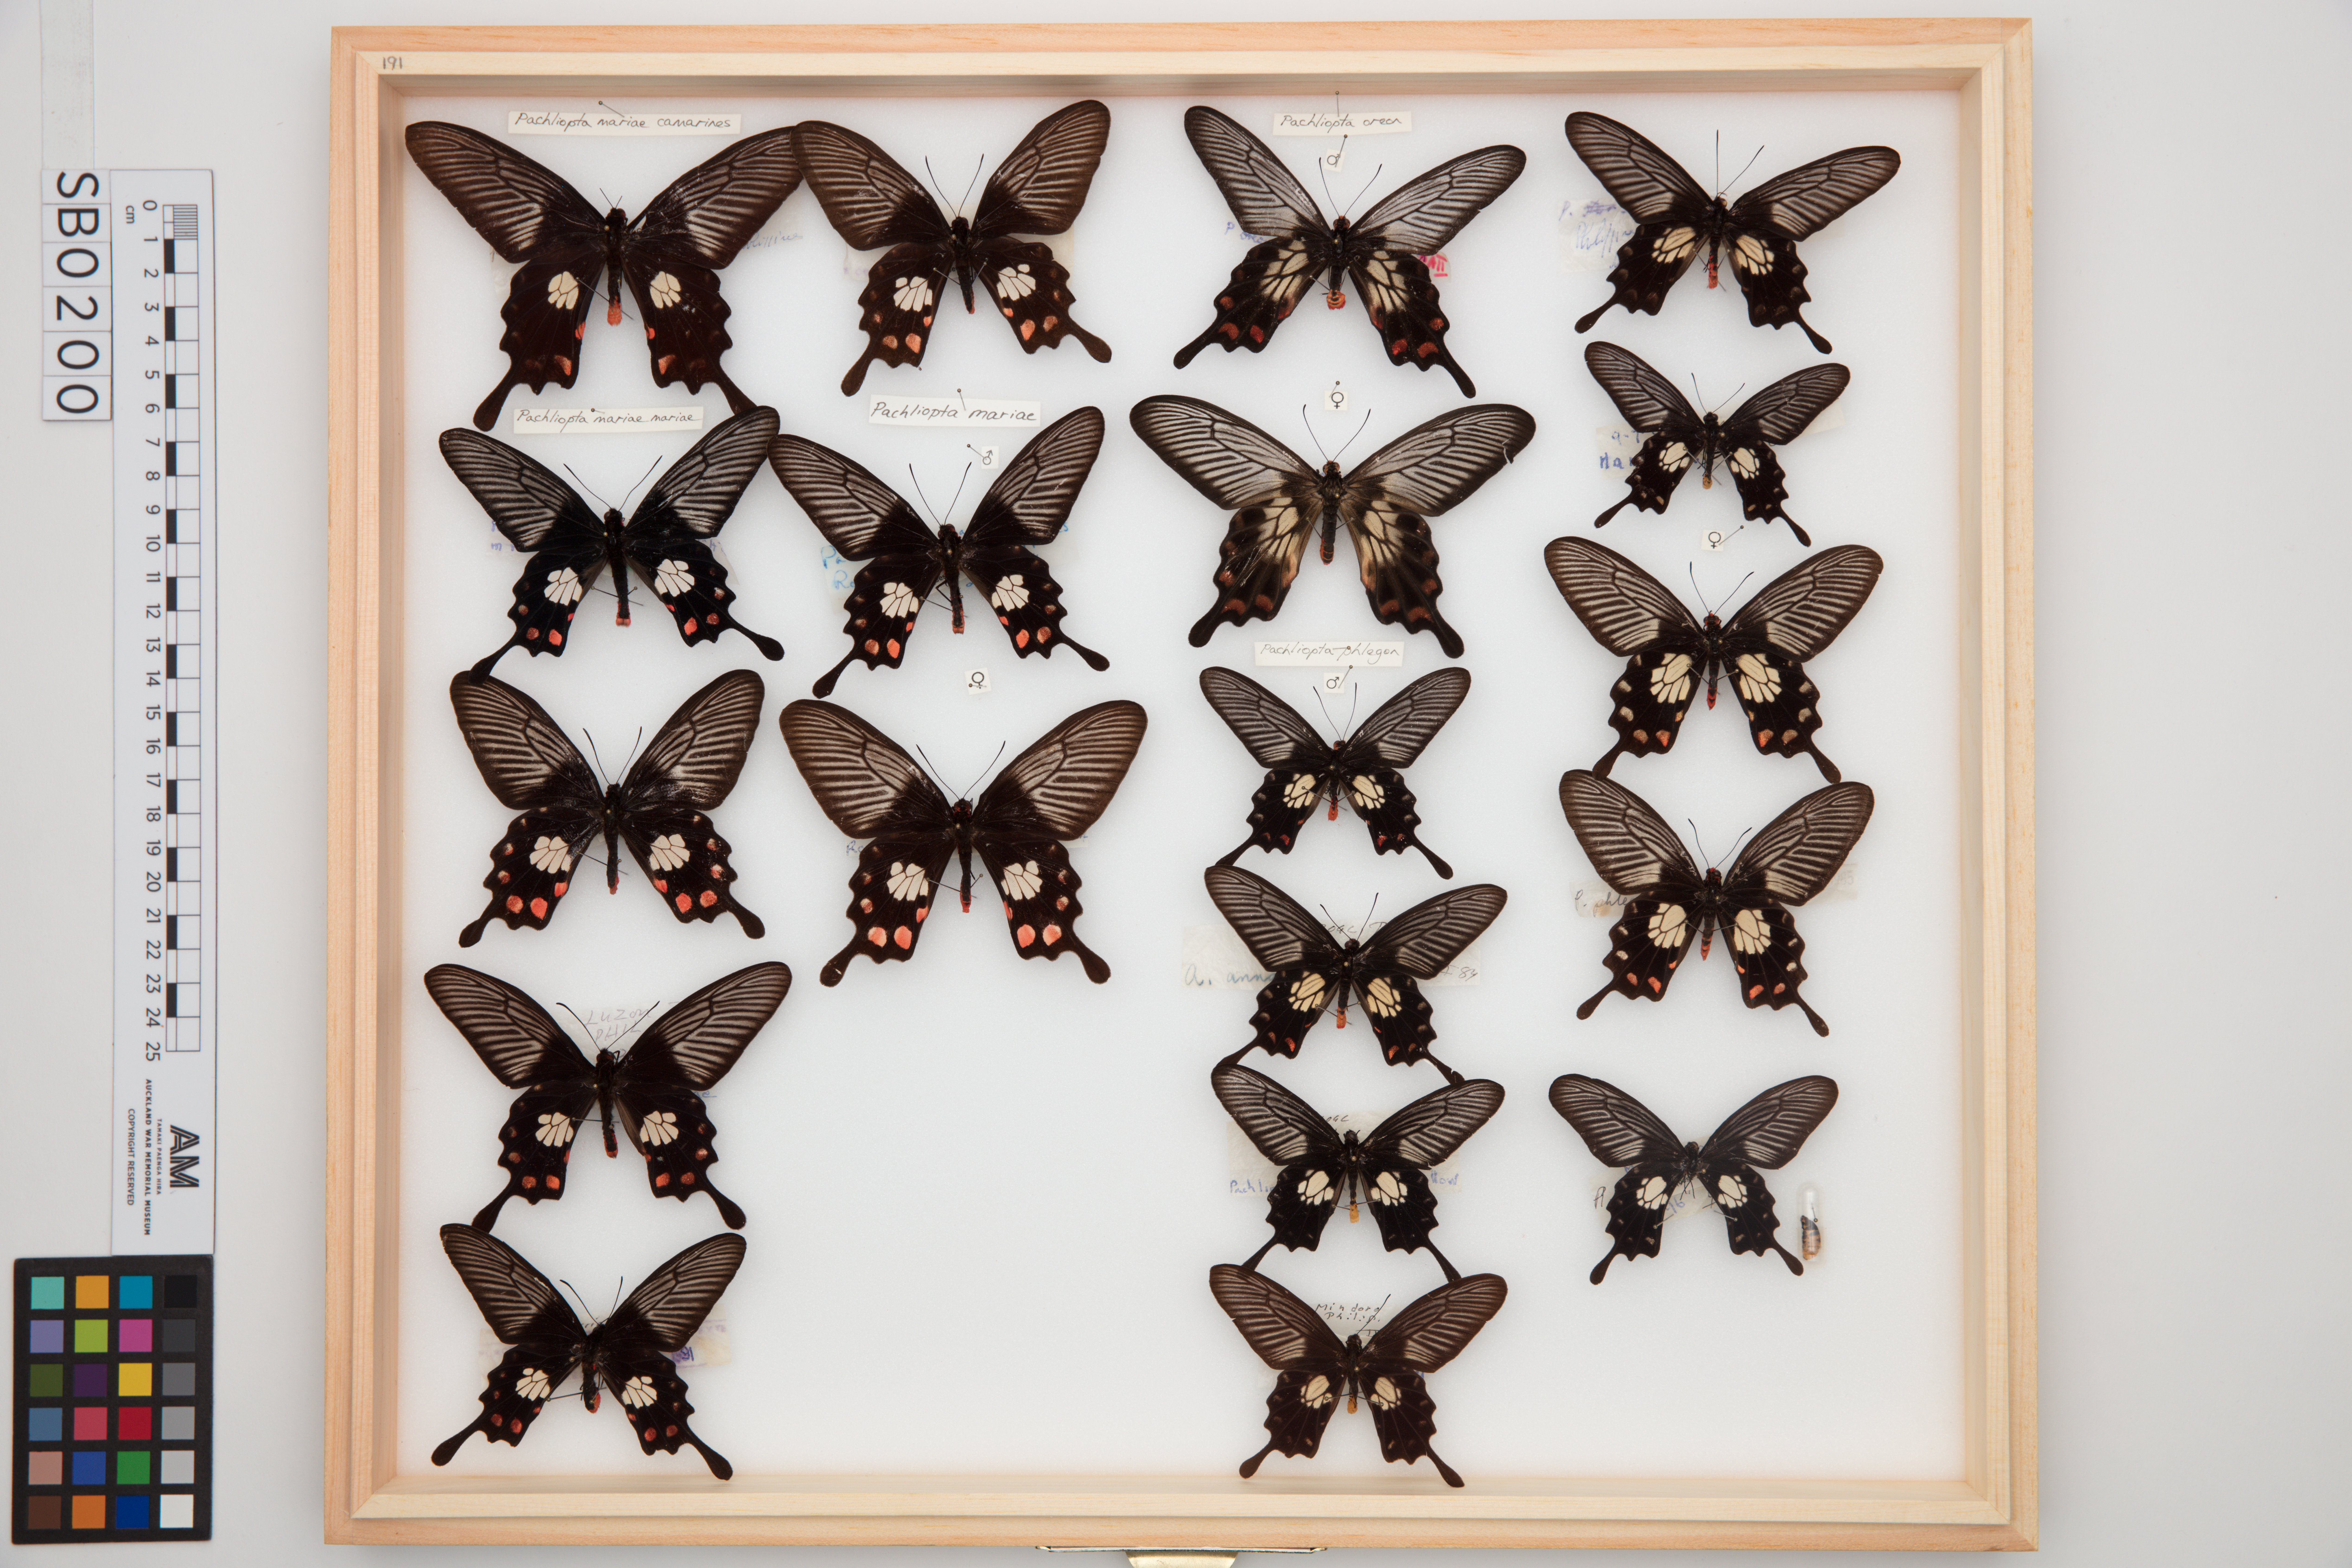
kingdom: Animalia
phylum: Arthropoda
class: Insecta
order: Lepidoptera
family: Papilionidae
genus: Pachliopta
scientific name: Pachliopta phlegon
